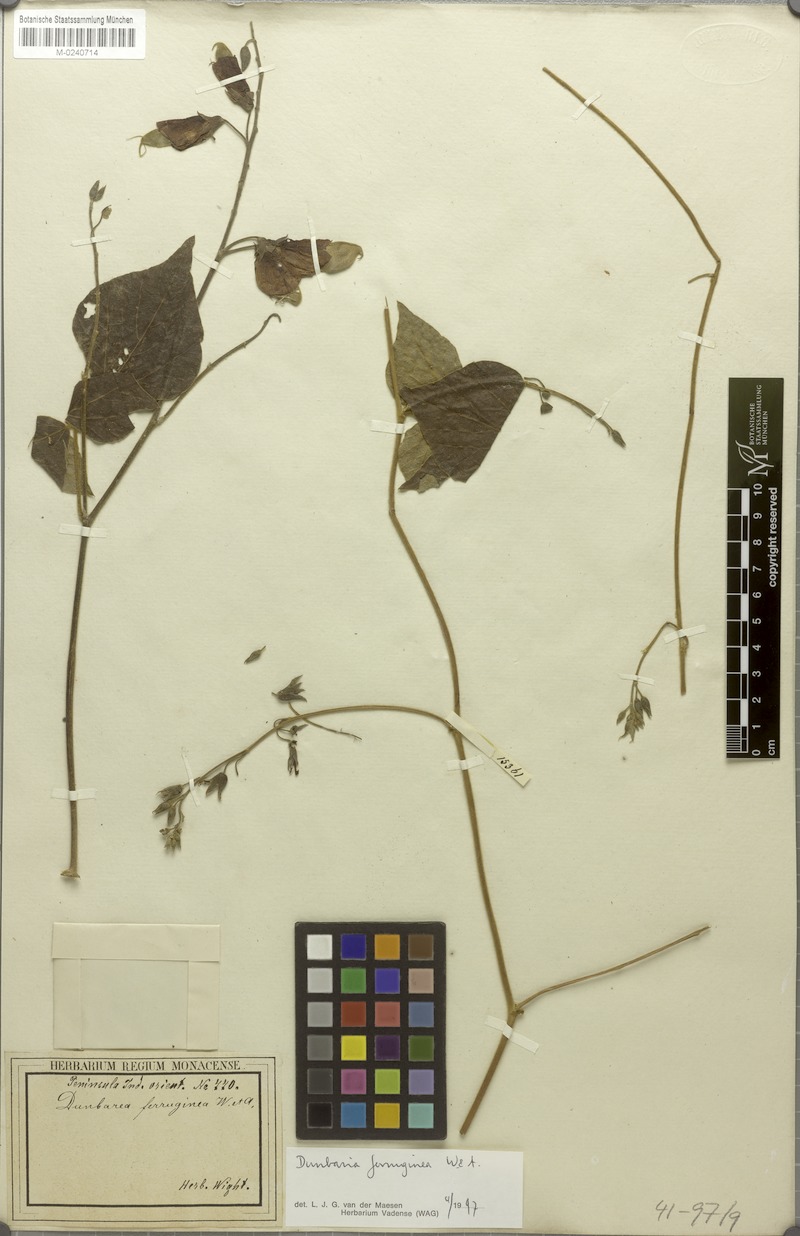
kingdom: Plantae
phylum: Tracheophyta
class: Magnoliopsida
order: Fabales
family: Fabaceae
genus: Dunbaria
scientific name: Dunbaria ferruginea
